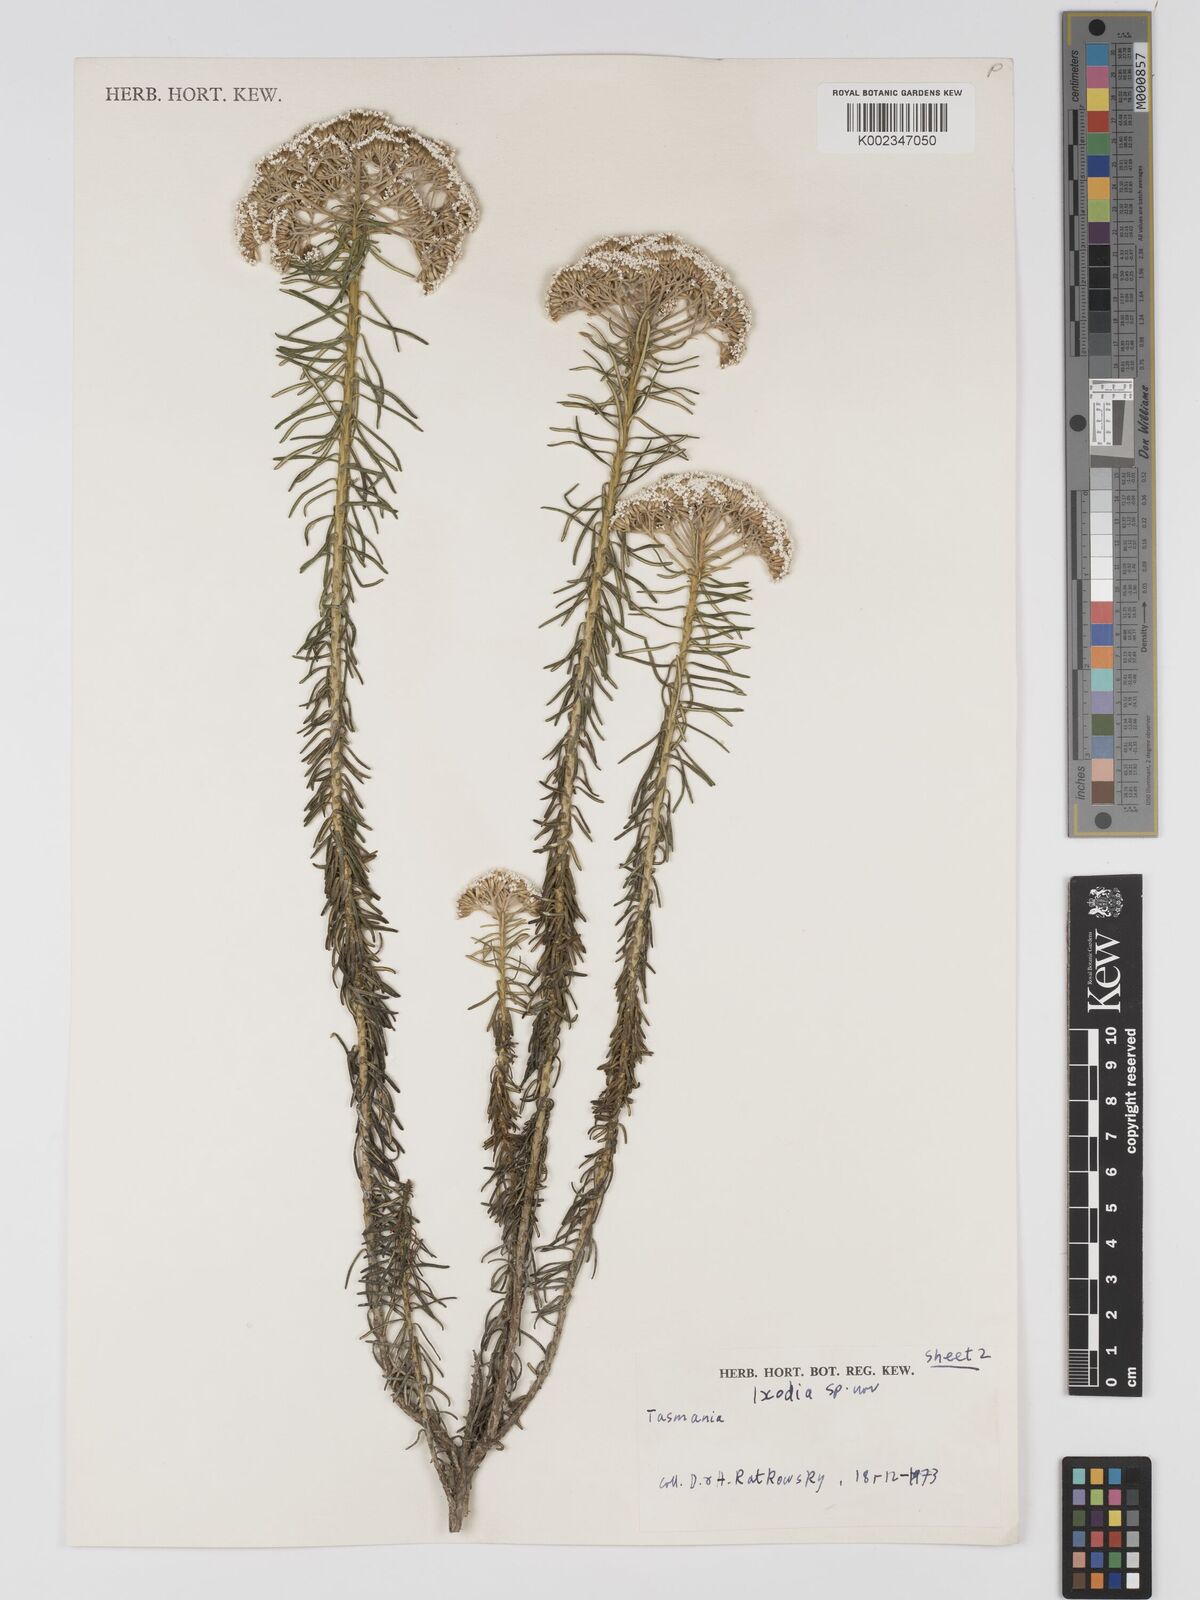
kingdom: Plantae
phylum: Tracheophyta
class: Magnoliopsida
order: Asterales
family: Asteraceae
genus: Odixia
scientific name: Odixia achlaena
